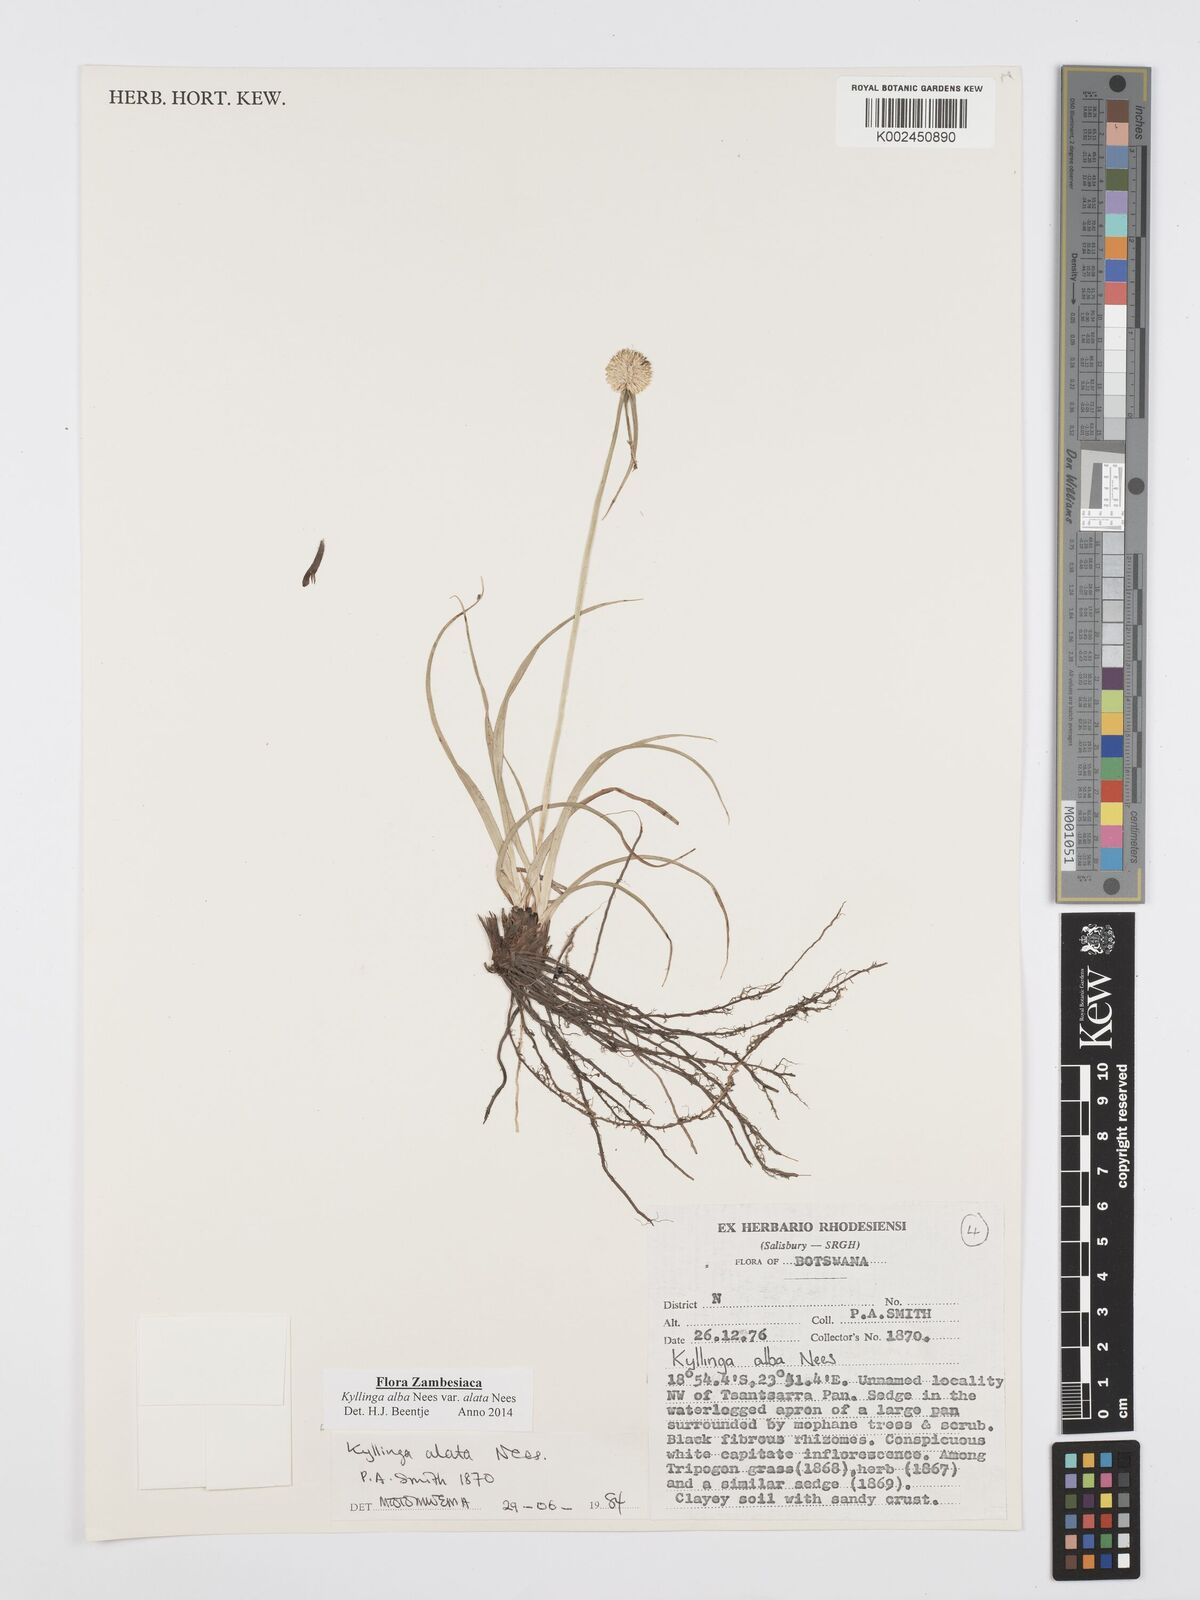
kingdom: Plantae
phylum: Tracheophyta
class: Liliopsida
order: Poales
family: Cyperaceae
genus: Cyperus
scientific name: Cyperus alatus
